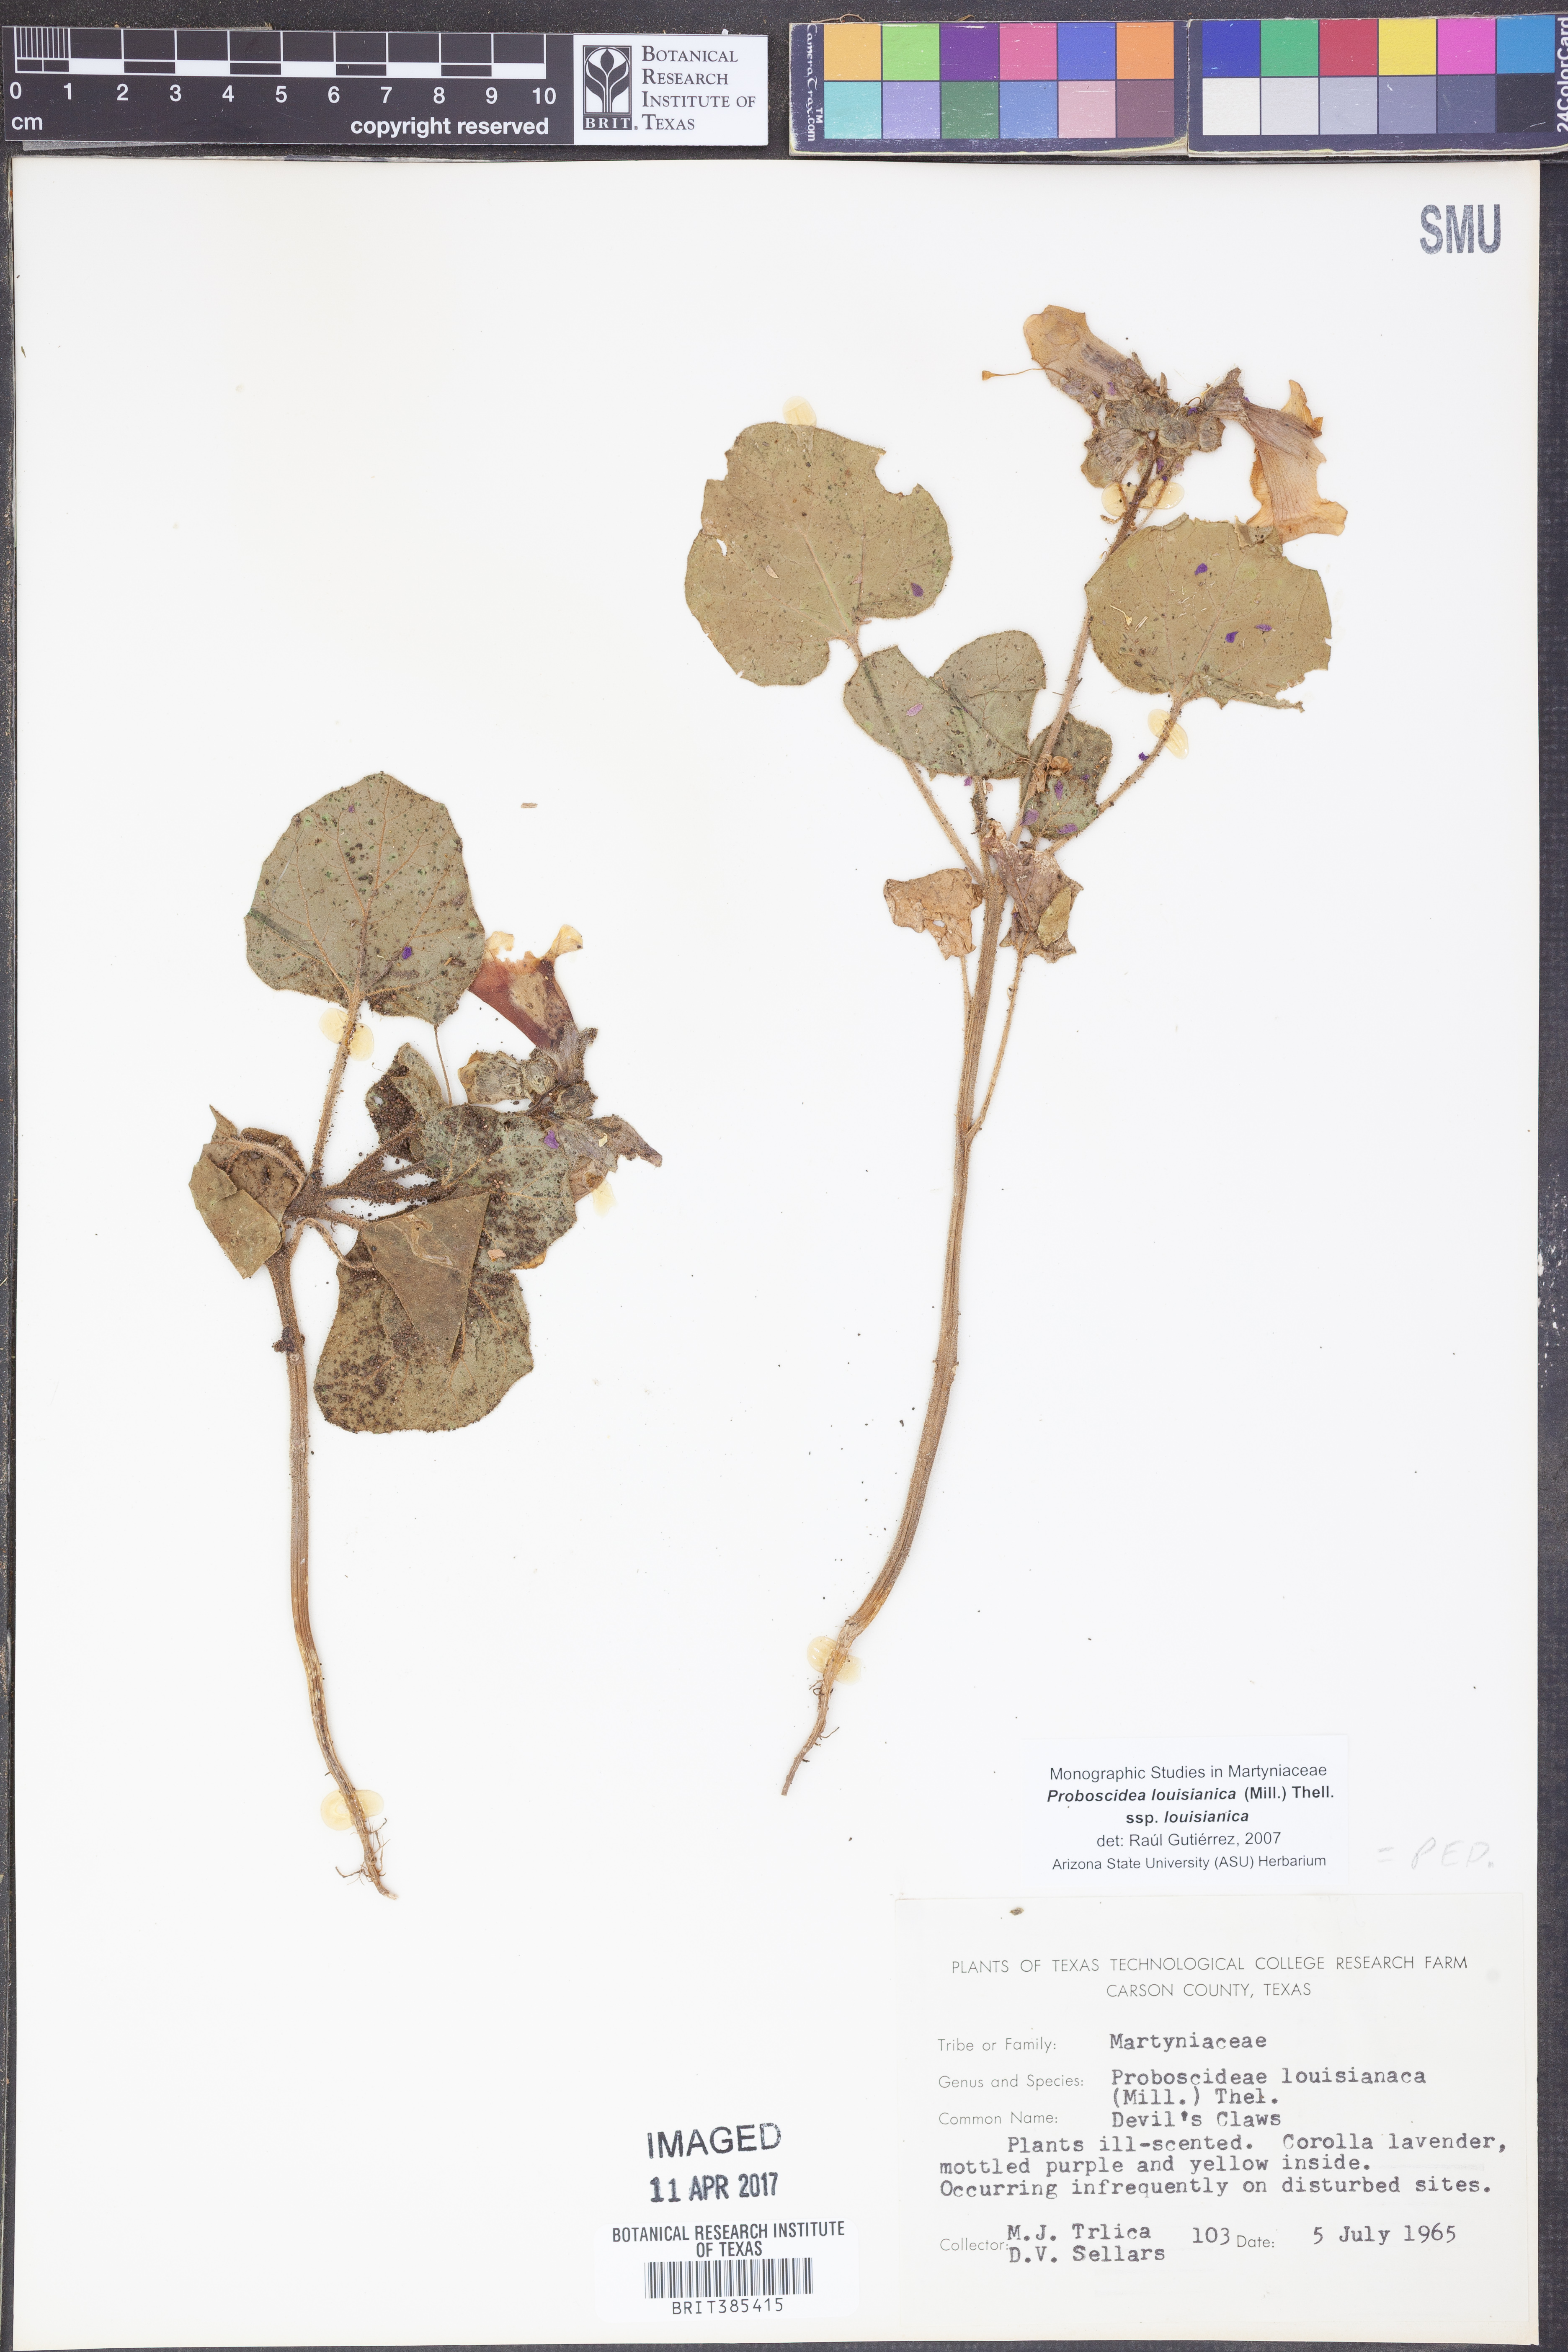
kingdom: Plantae
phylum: Tracheophyta
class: Magnoliopsida
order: Lamiales
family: Martyniaceae
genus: Proboscidea
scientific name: Proboscidea louisianica
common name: Elephant tusks
